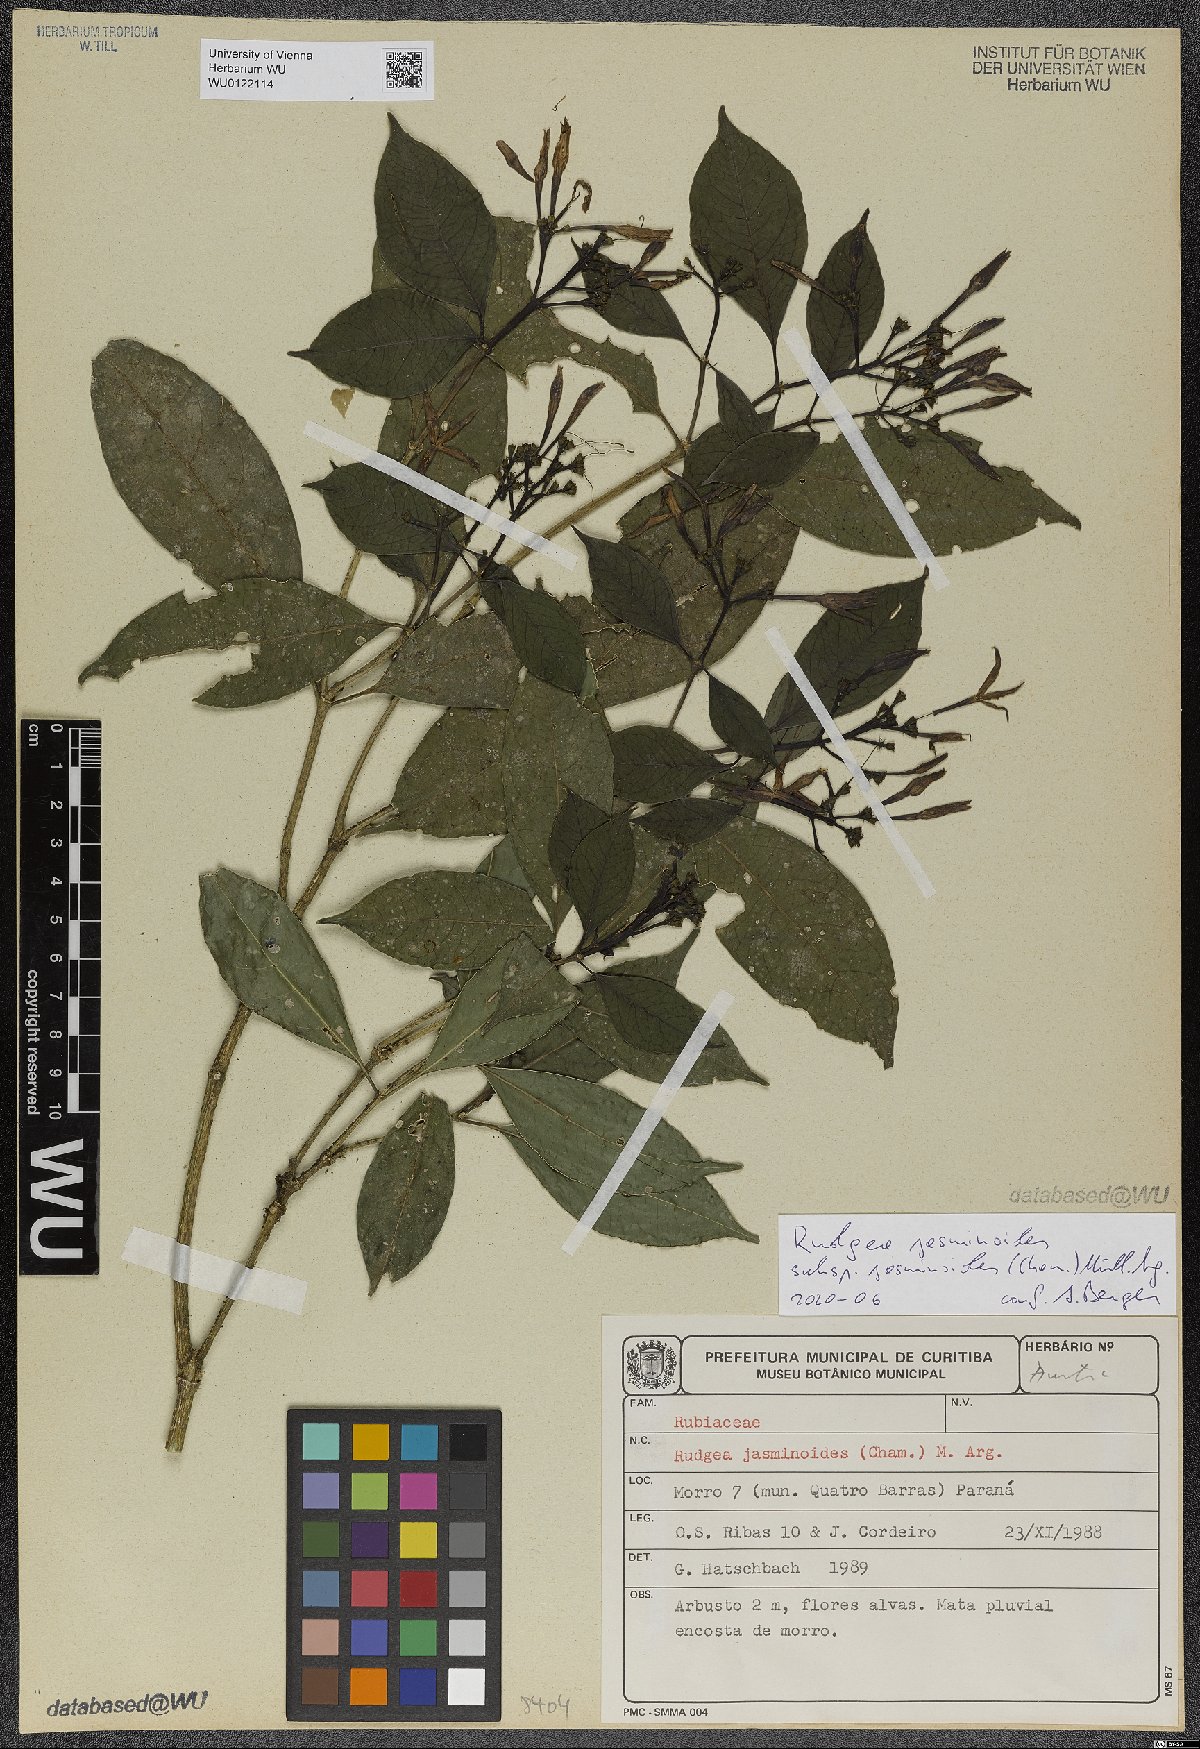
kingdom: Plantae
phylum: Tracheophyta
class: Magnoliopsida
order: Gentianales
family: Rubiaceae
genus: Rudgea
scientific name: Rudgea jasminoides
